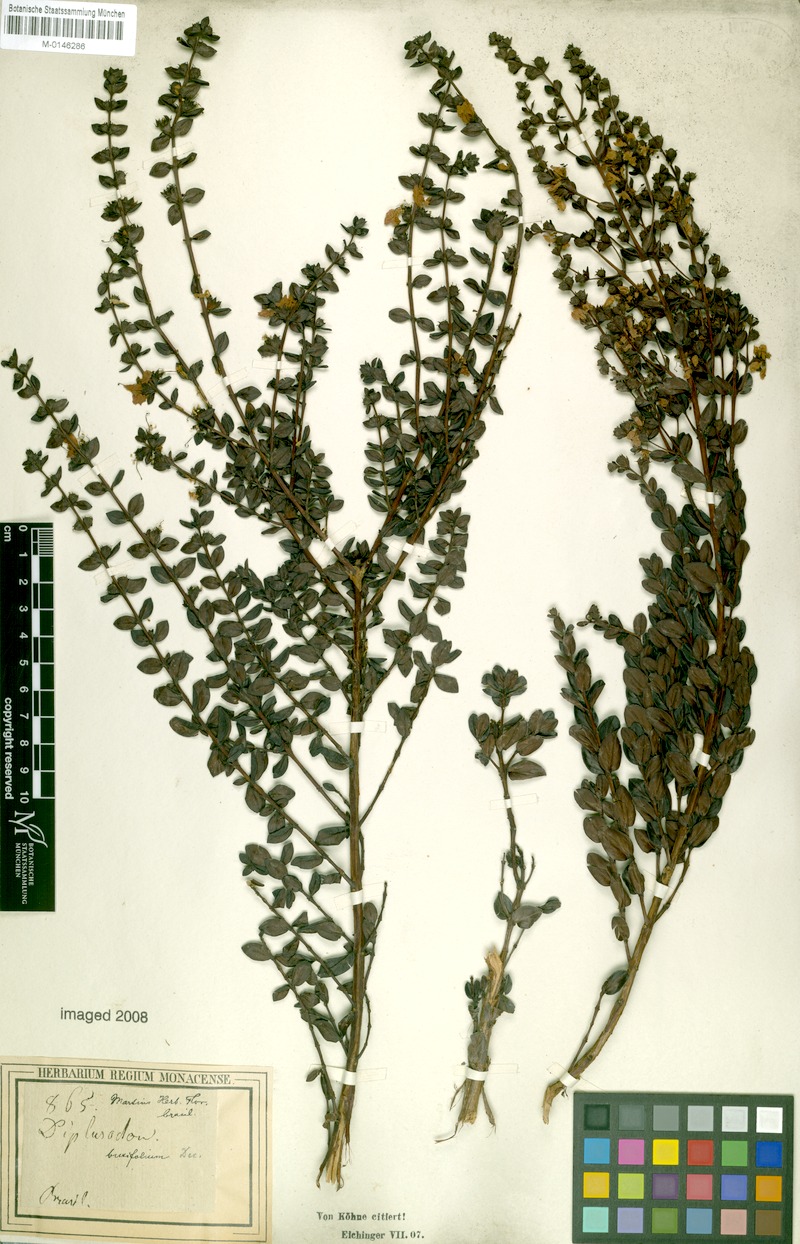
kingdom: Plantae
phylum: Tracheophyta
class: Magnoliopsida
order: Myrtales
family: Lythraceae
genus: Diplusodon
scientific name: Diplusodon buxifolius
